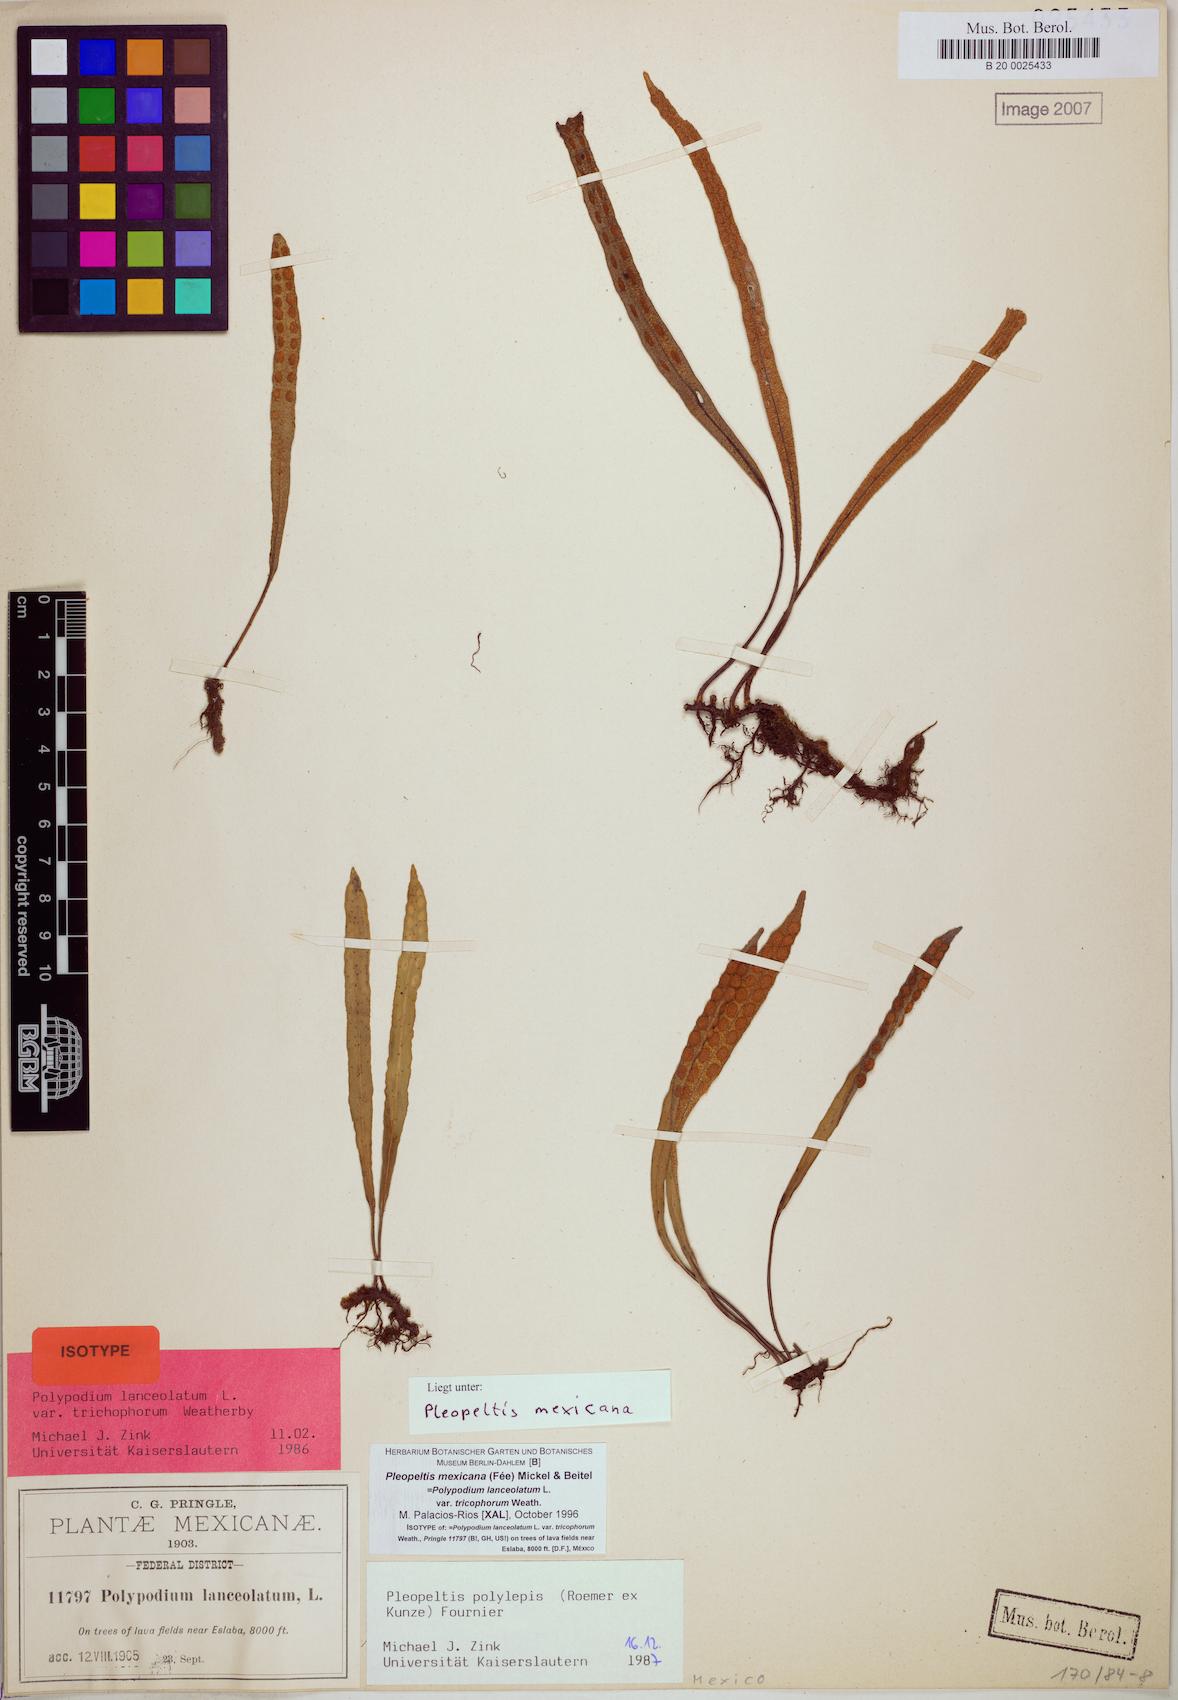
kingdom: Plantae
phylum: Tracheophyta
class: Polypodiopsida
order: Polypodiales
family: Polypodiaceae
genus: Pleopeltis
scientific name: Pleopeltis mexicana
